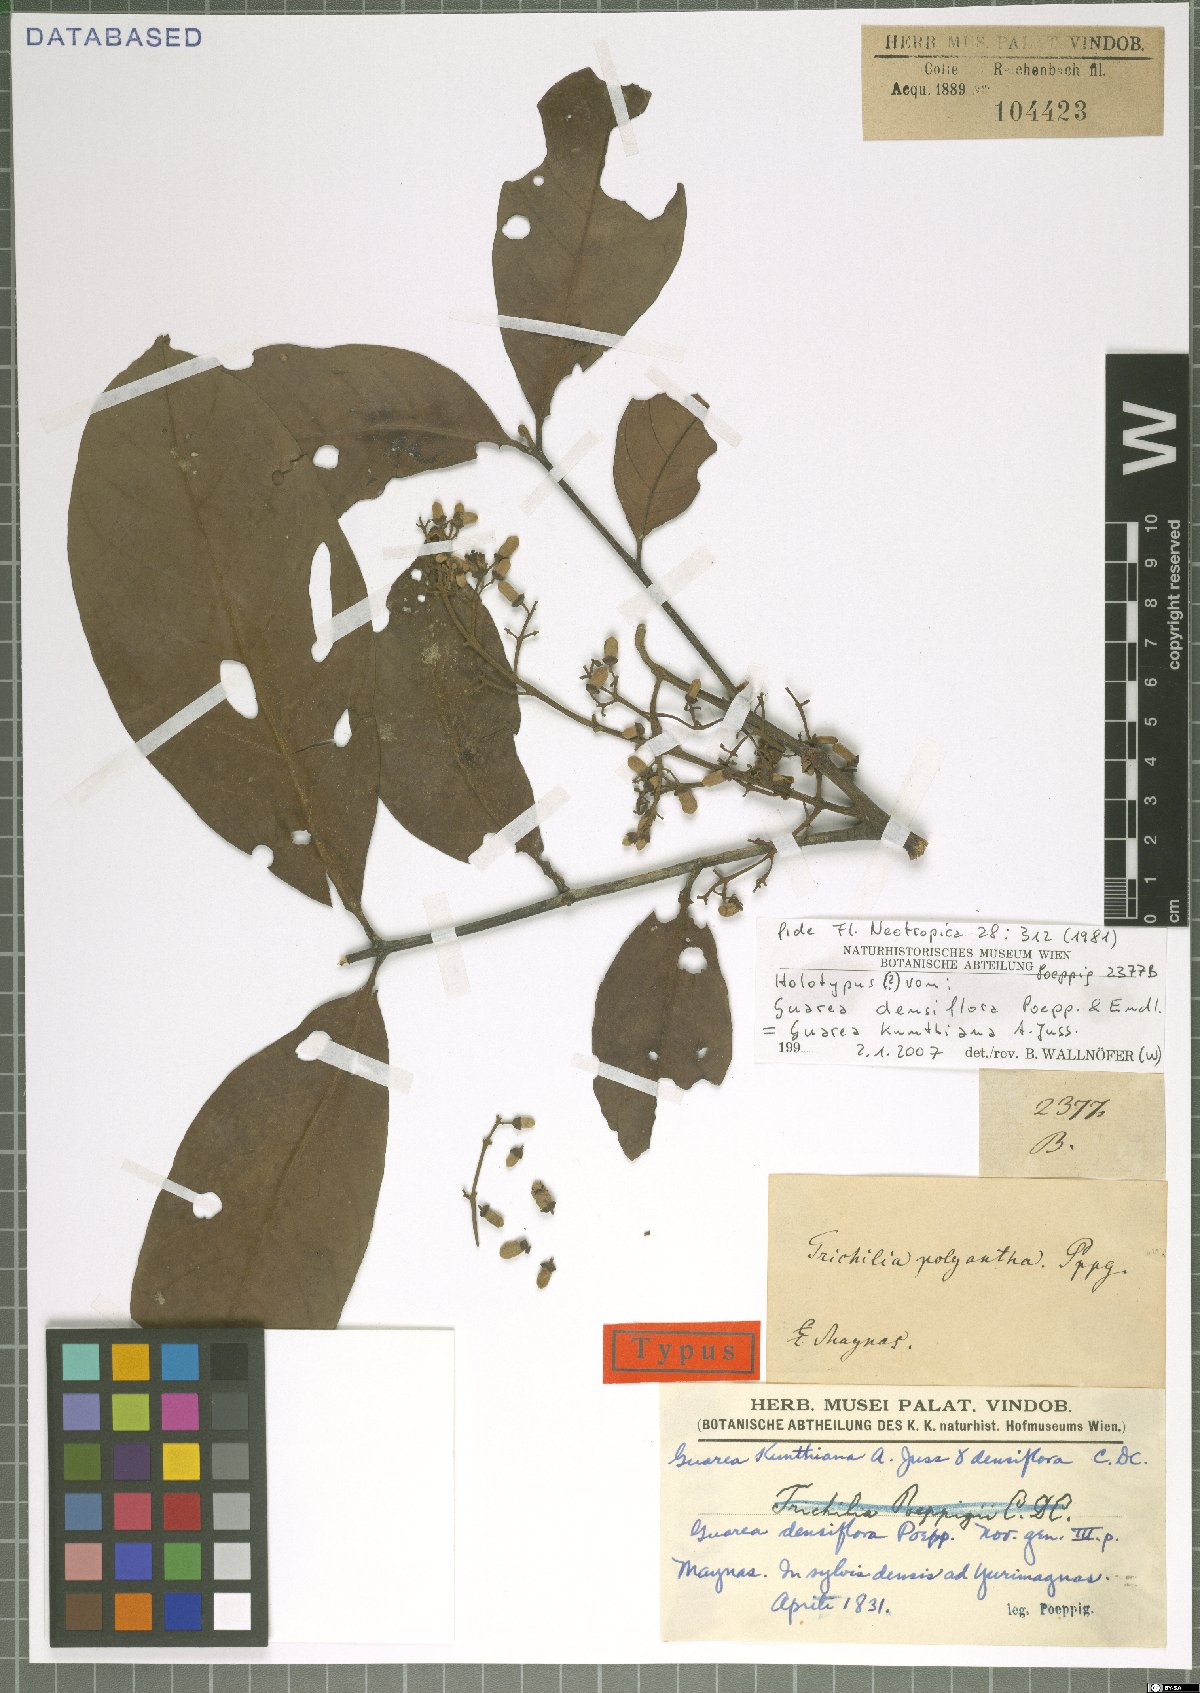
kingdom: Plantae
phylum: Tracheophyta
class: Magnoliopsida
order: Sapindales
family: Meliaceae
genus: Guarea
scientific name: Guarea kunthiana
